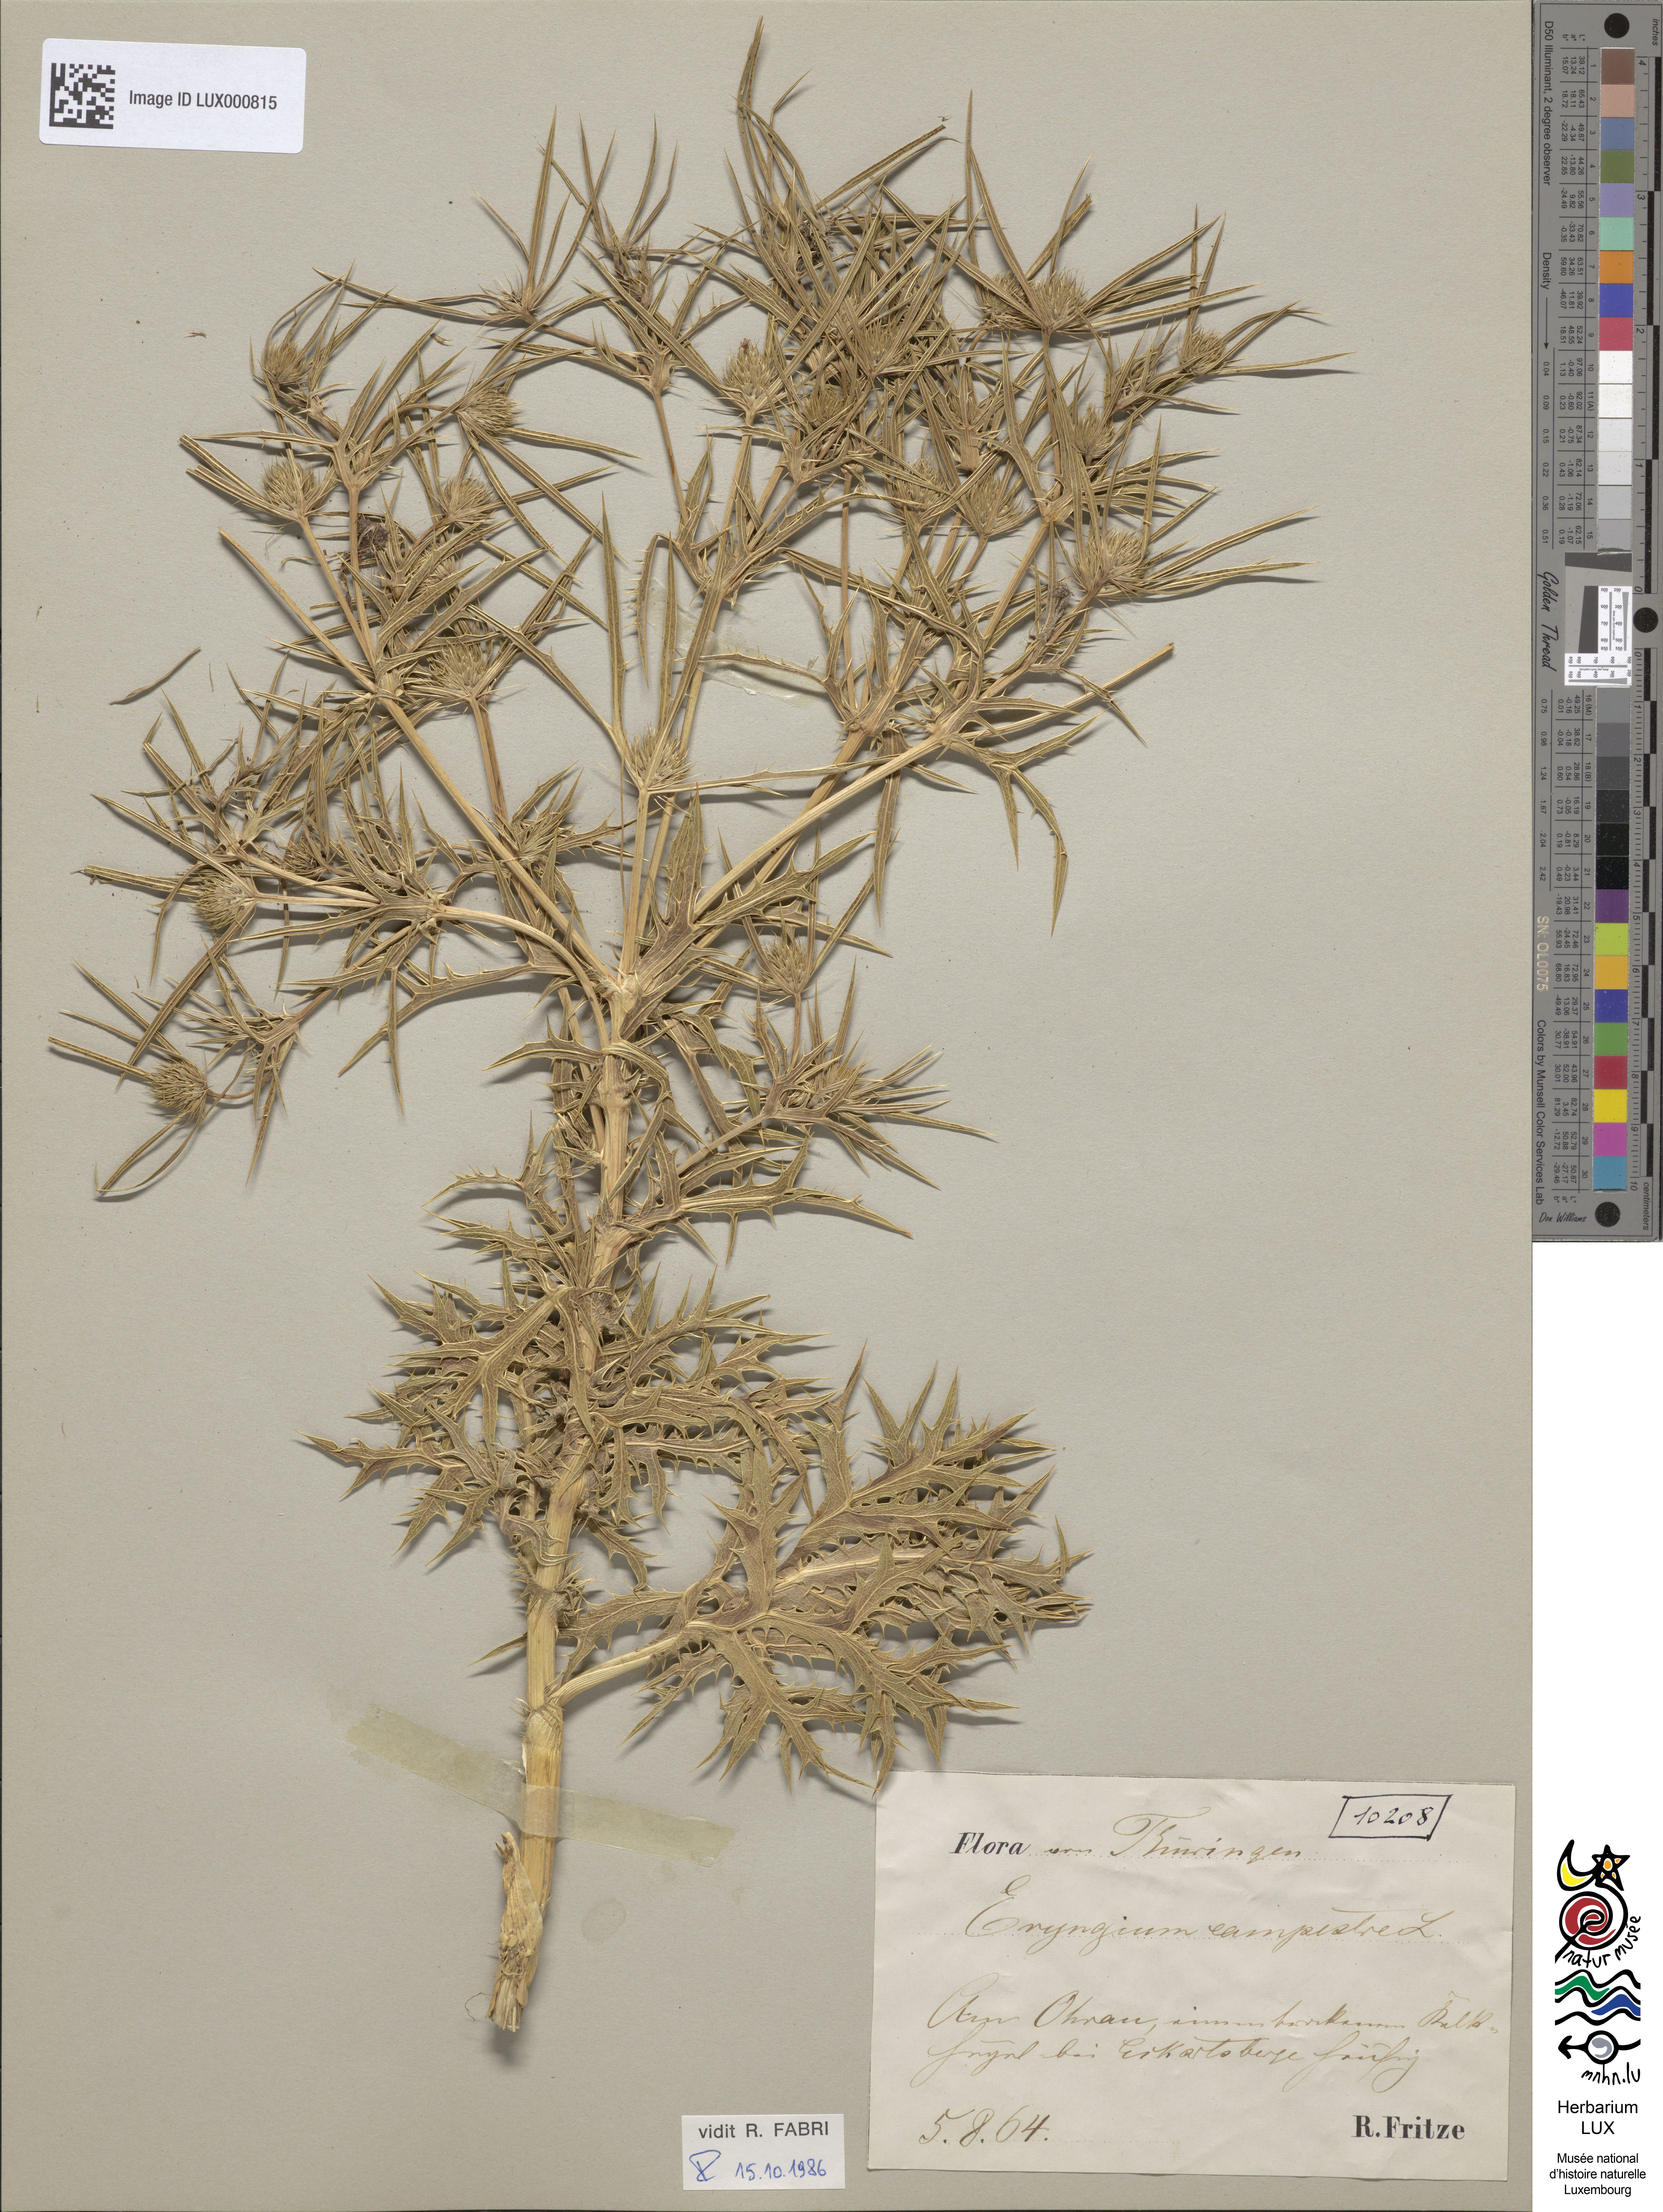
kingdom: Plantae
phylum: Tracheophyta
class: Magnoliopsida
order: Apiales
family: Apiaceae
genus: Eryngium
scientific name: Eryngium campestre
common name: Field eryngo
